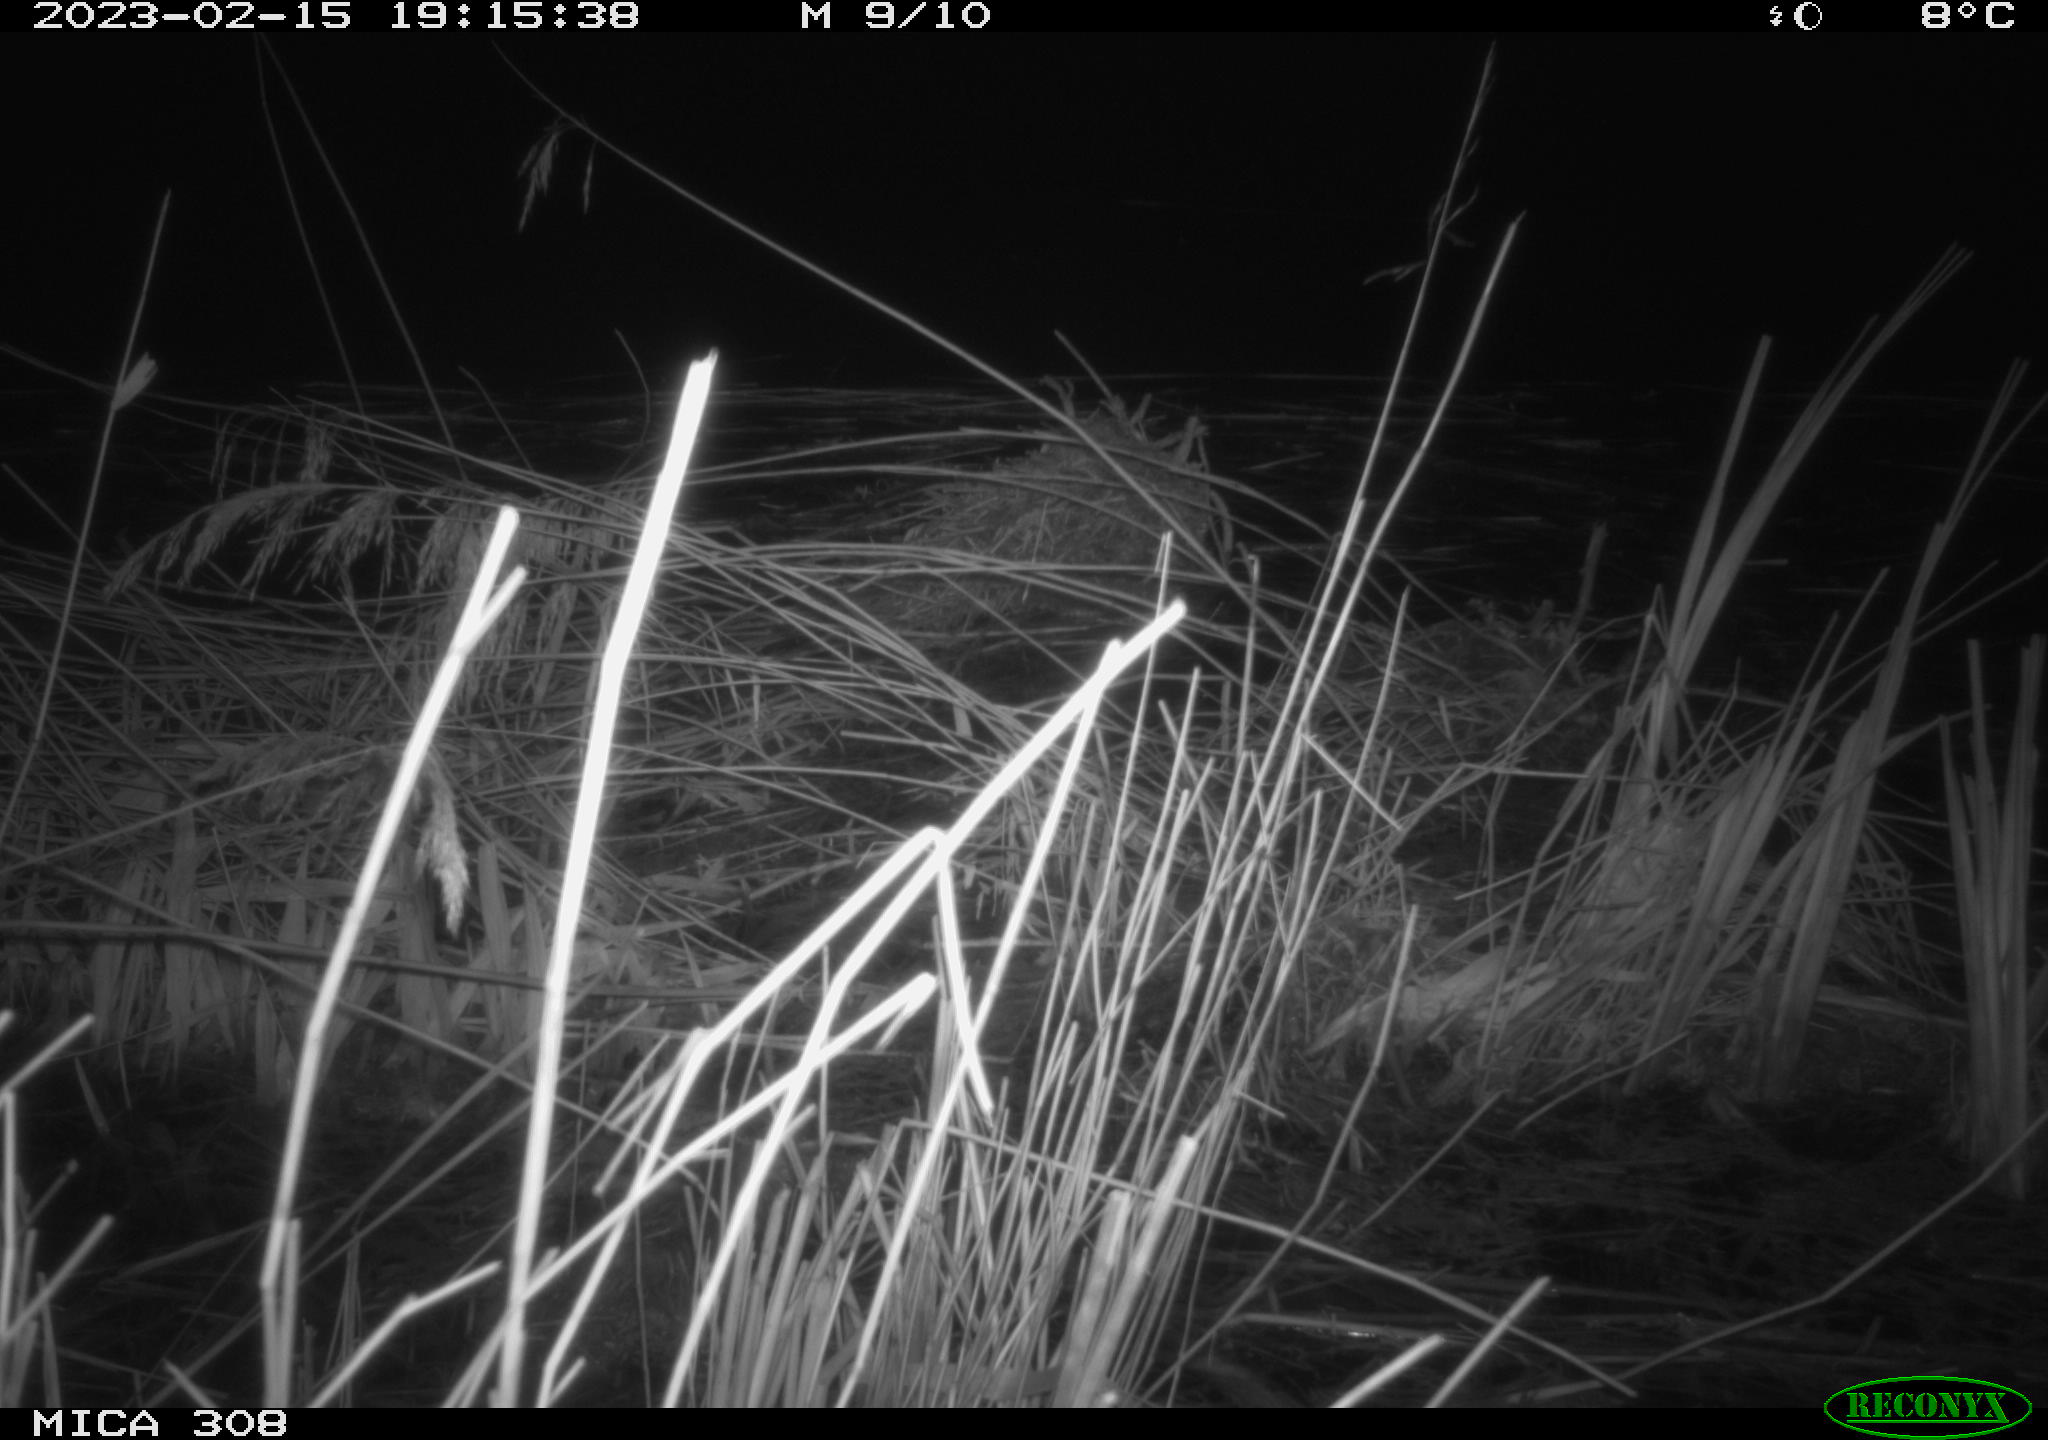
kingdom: Animalia
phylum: Chordata
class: Mammalia
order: Rodentia
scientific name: Rodentia
